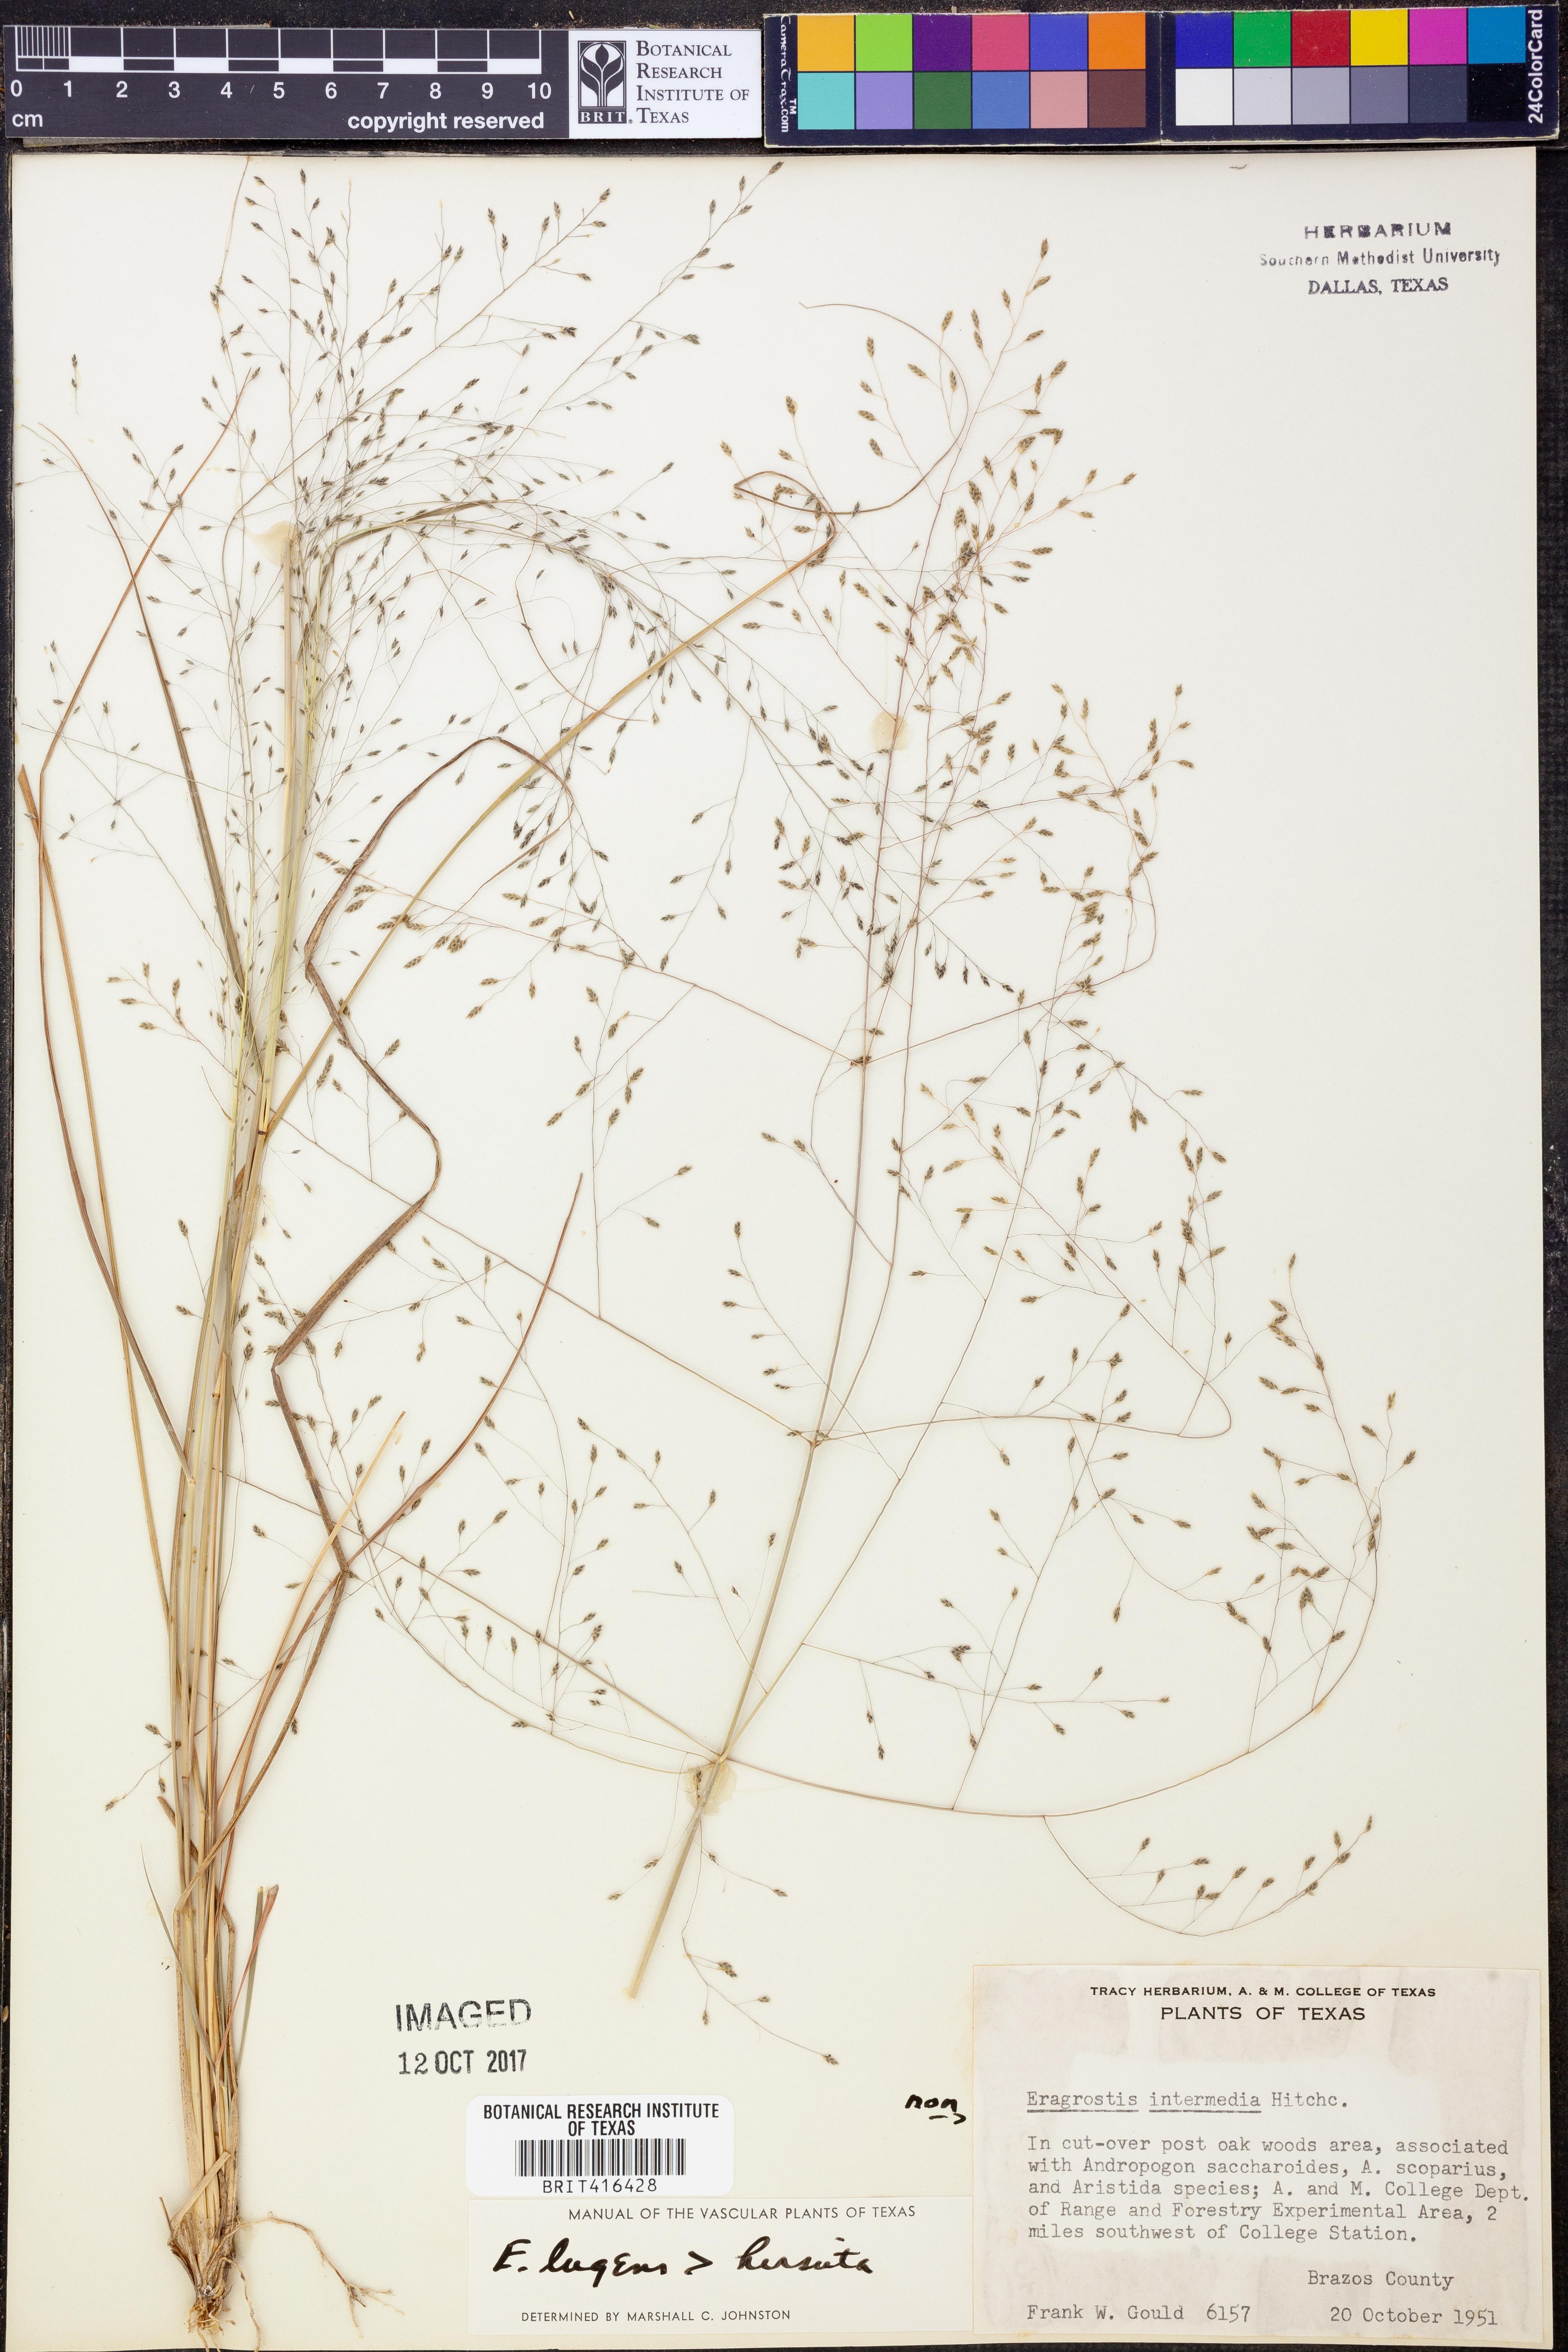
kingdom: Plantae
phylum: Tracheophyta
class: Liliopsida
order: Poales
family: Poaceae
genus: Eragrostis
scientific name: Eragrostis intermedia
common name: Plains love grass
